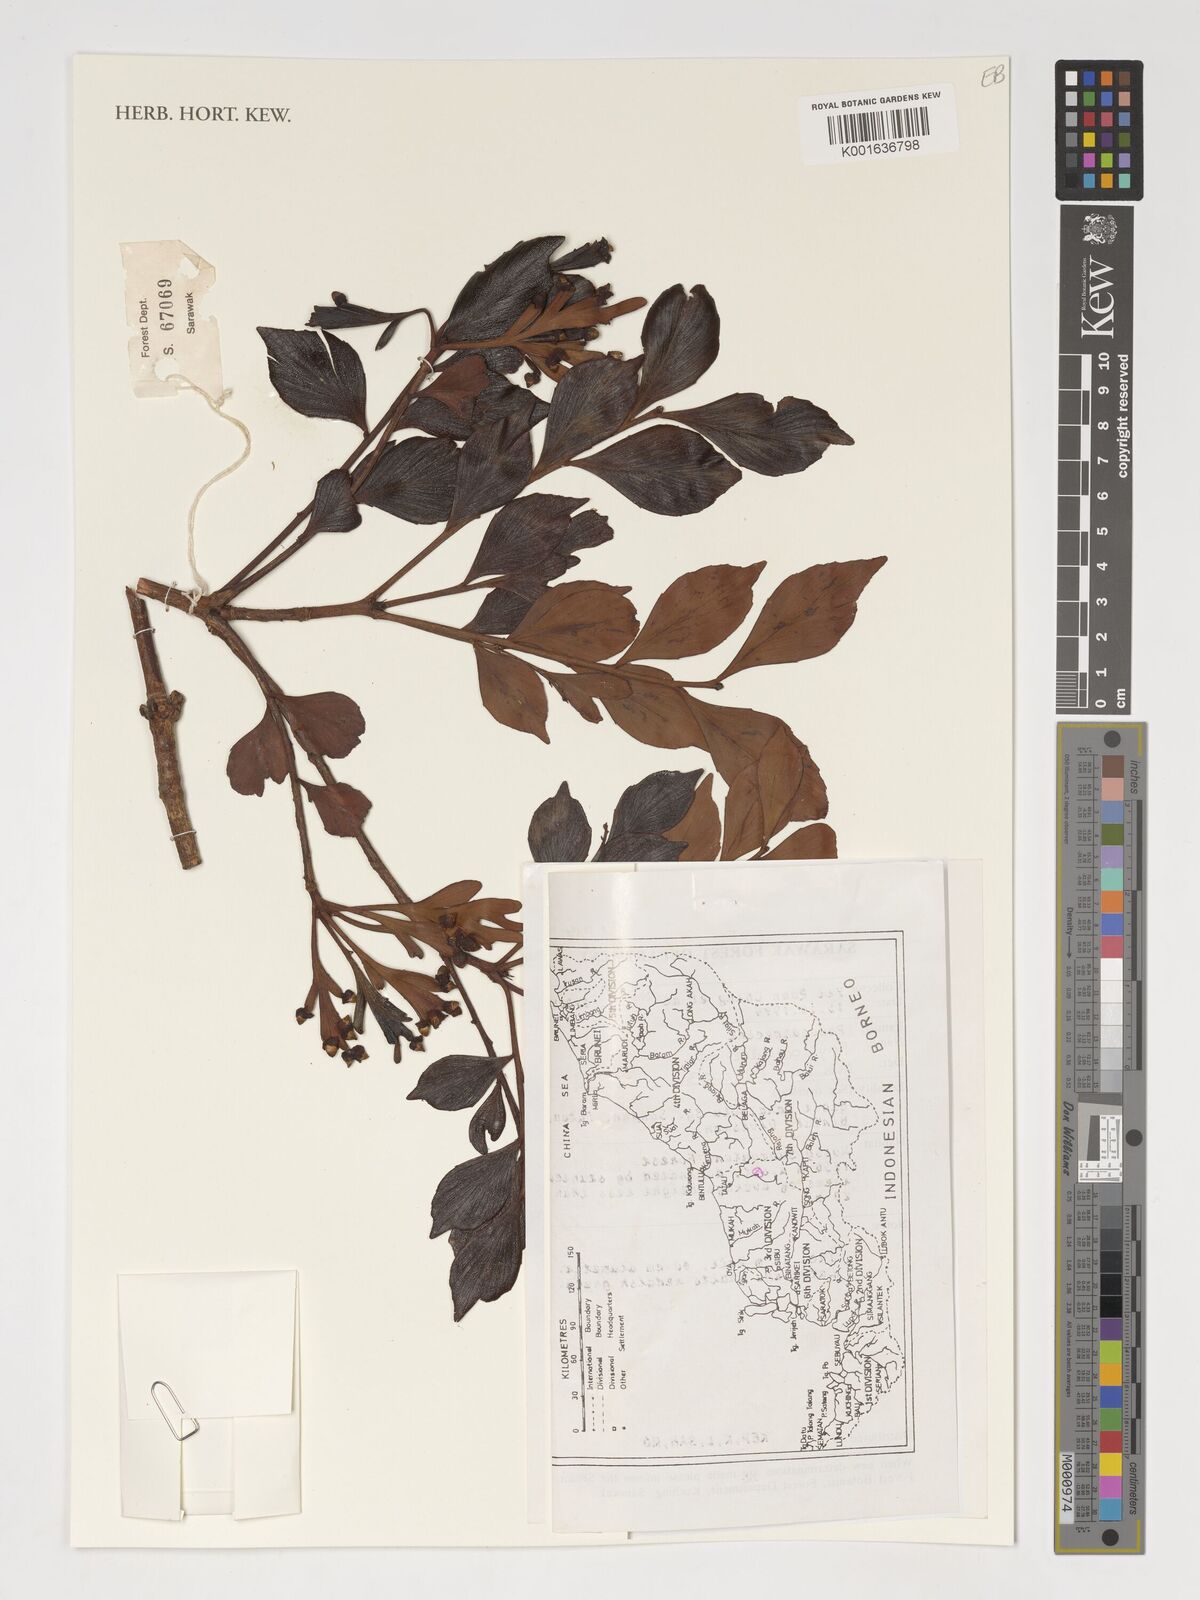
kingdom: Plantae
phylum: Tracheophyta
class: Pinopsida
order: Pinales
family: Phyllocladaceae
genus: Phyllocladus
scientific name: Phyllocladus
